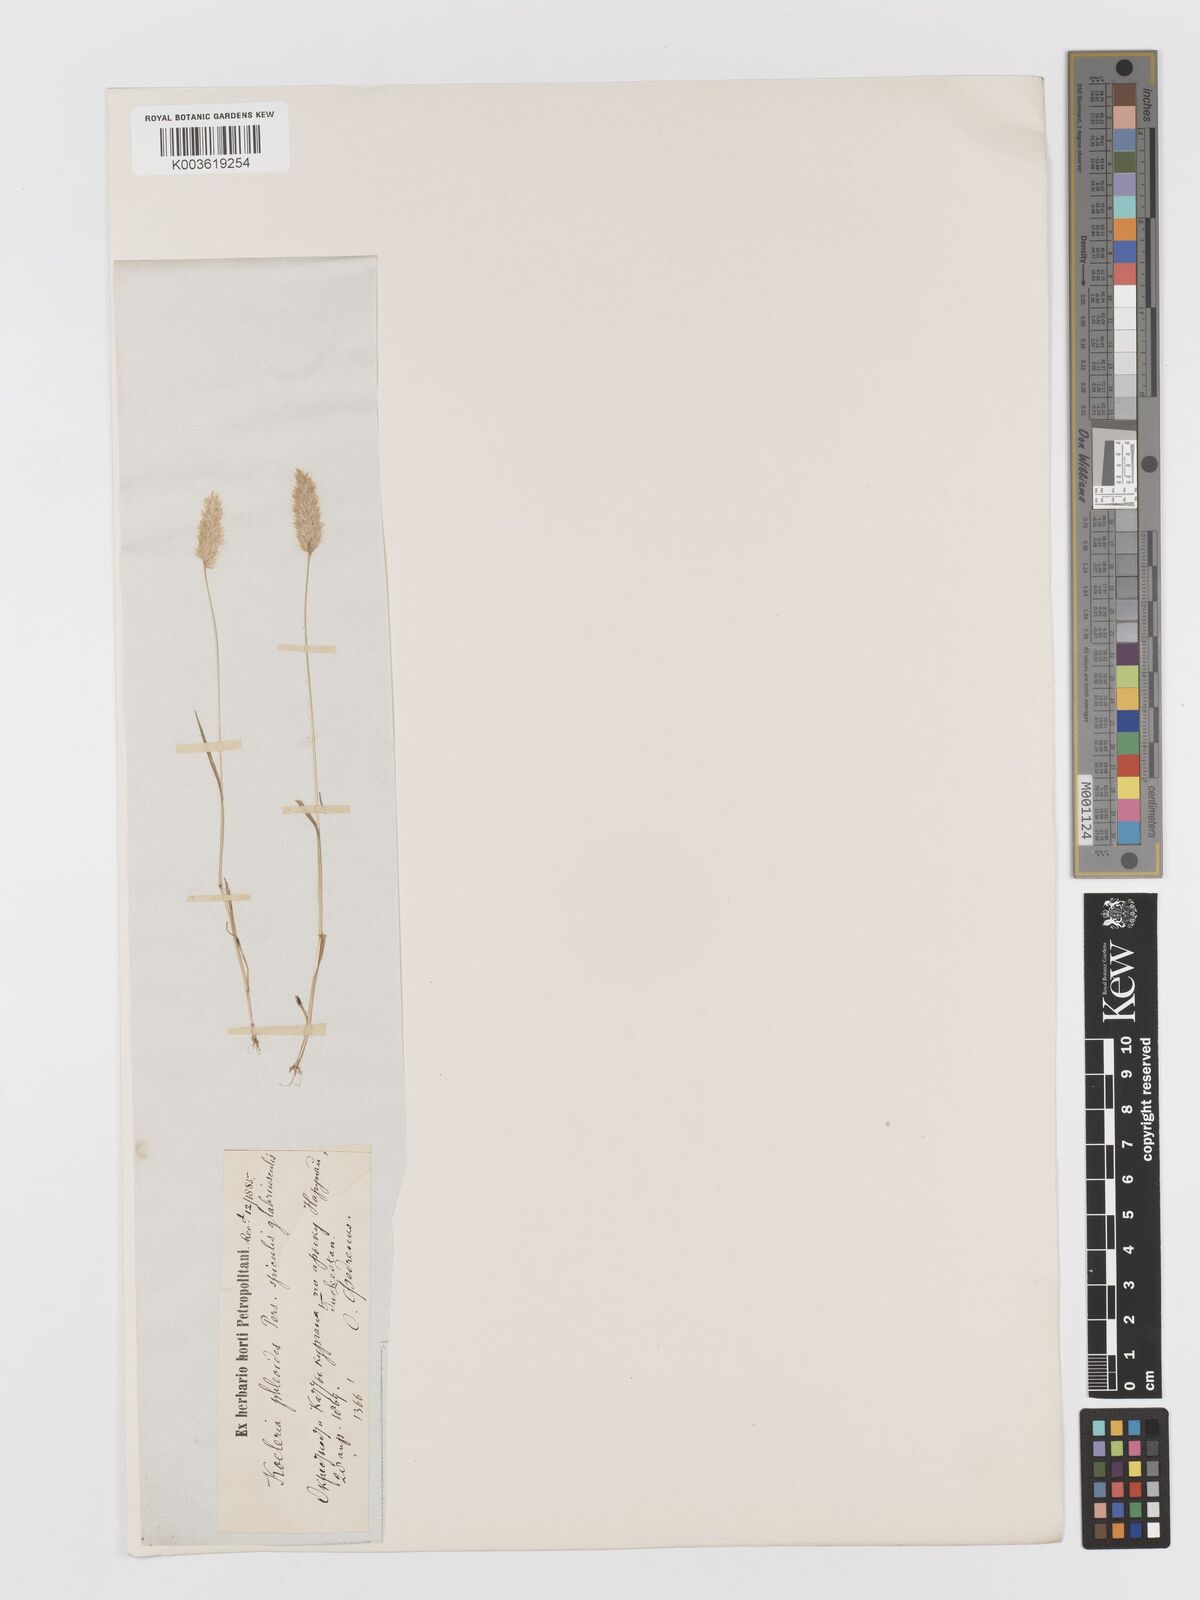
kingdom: Plantae
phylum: Tracheophyta
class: Liliopsida
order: Poales
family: Poaceae
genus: Rostraria
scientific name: Rostraria cristata
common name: Mediterranean hair-grass
